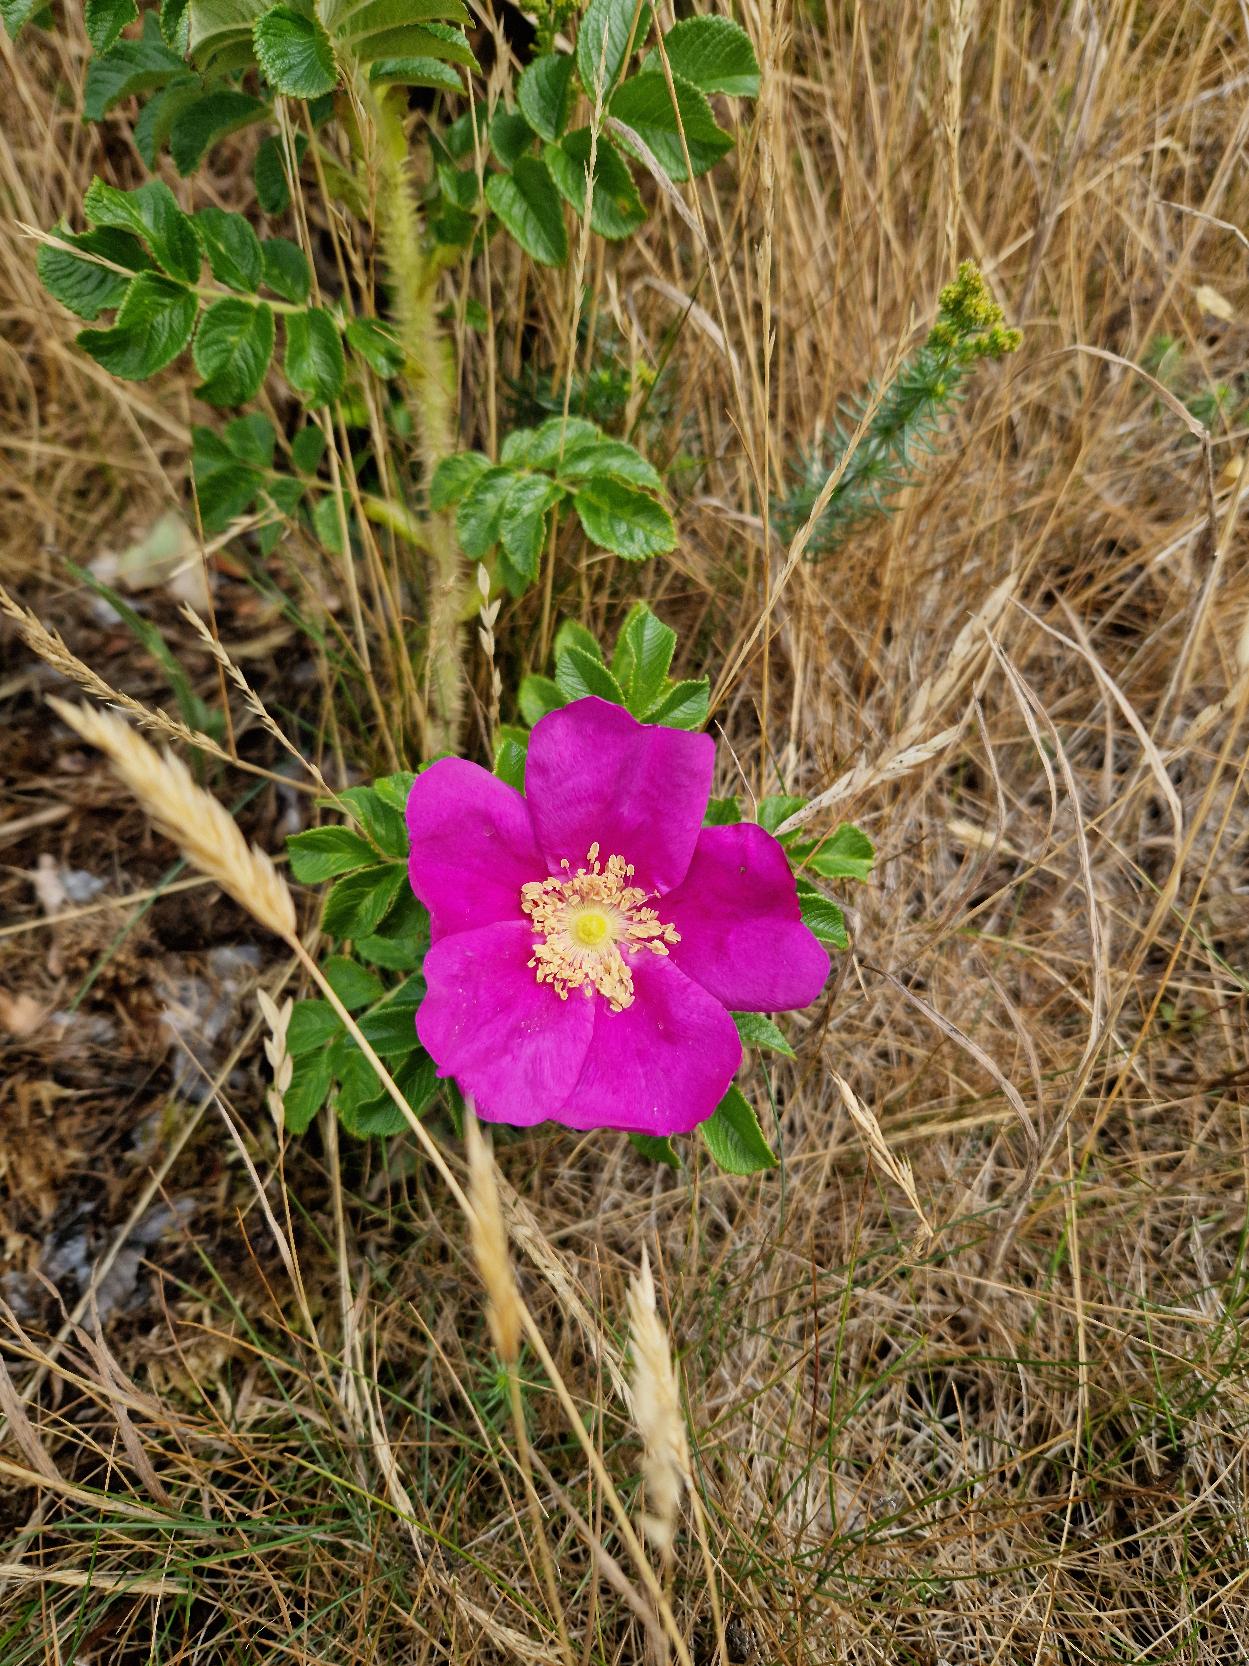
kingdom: Plantae
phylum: Tracheophyta
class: Magnoliopsida
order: Rosales
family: Rosaceae
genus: Rosa
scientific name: Rosa rugosa
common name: Rynket rose
